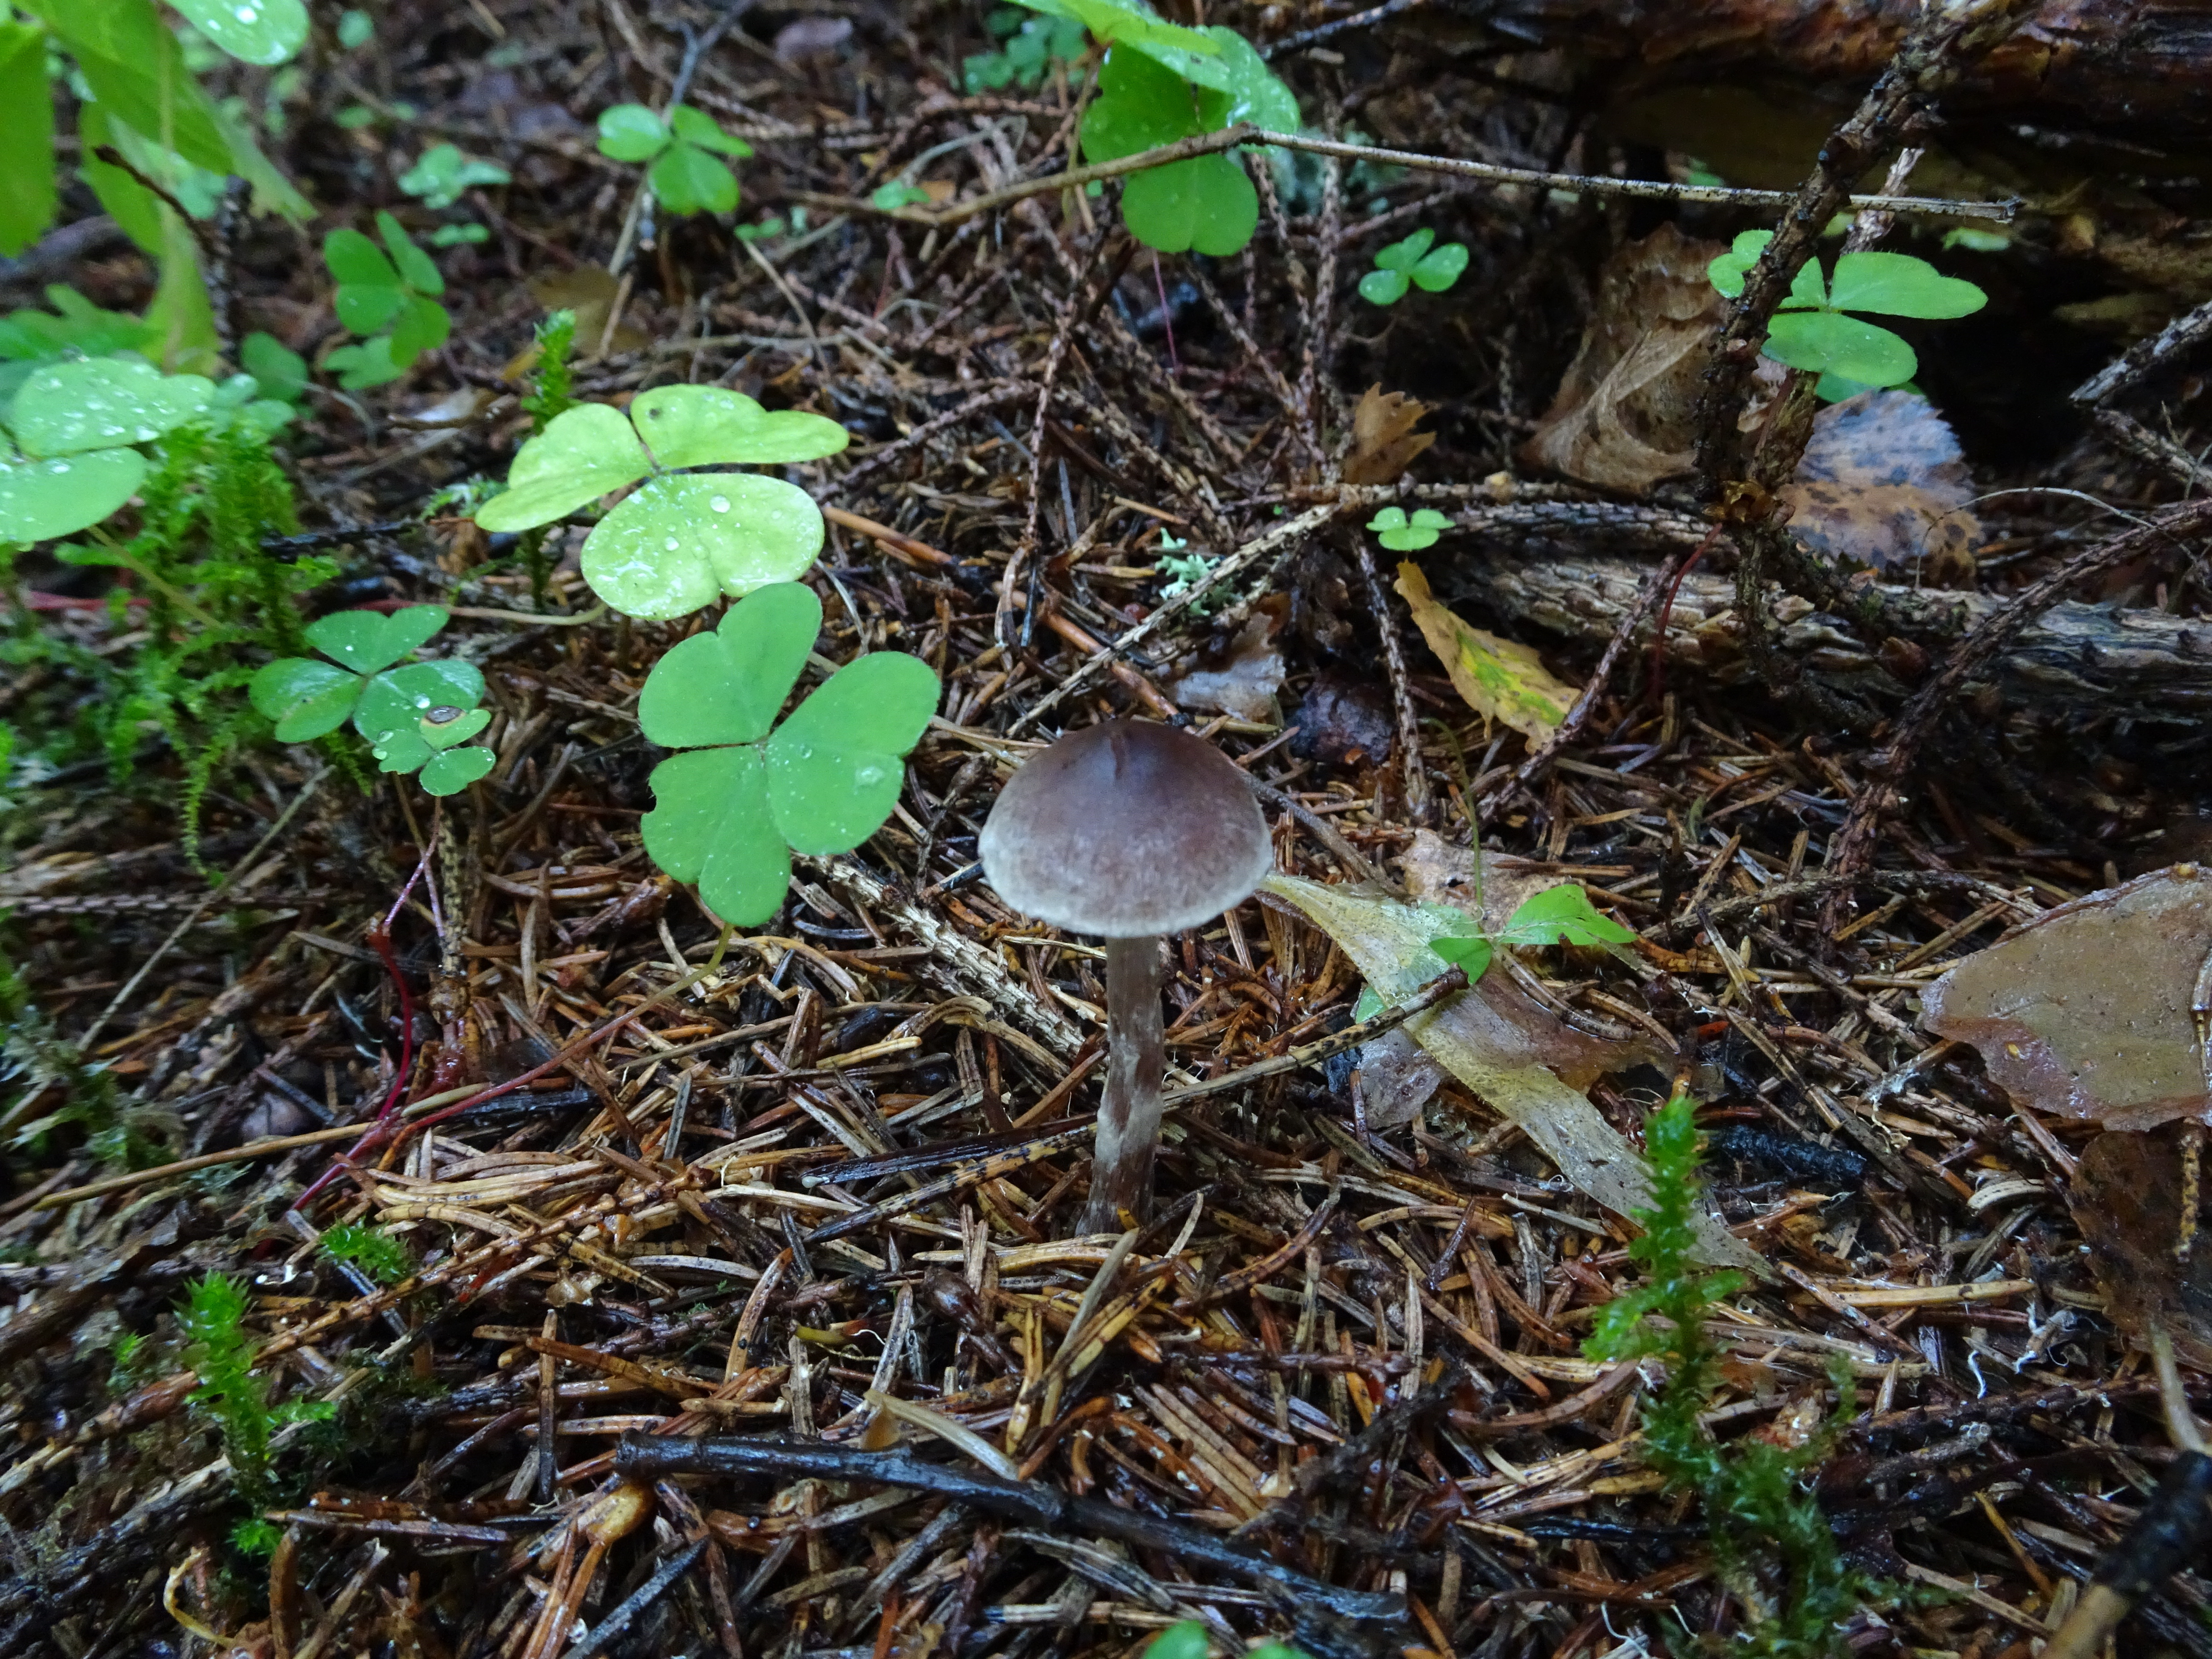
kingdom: Fungi
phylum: Basidiomycota
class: Agaricomycetes
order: Agaricales
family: Cortinariaceae
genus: Cortinarius
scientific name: Cortinarius
